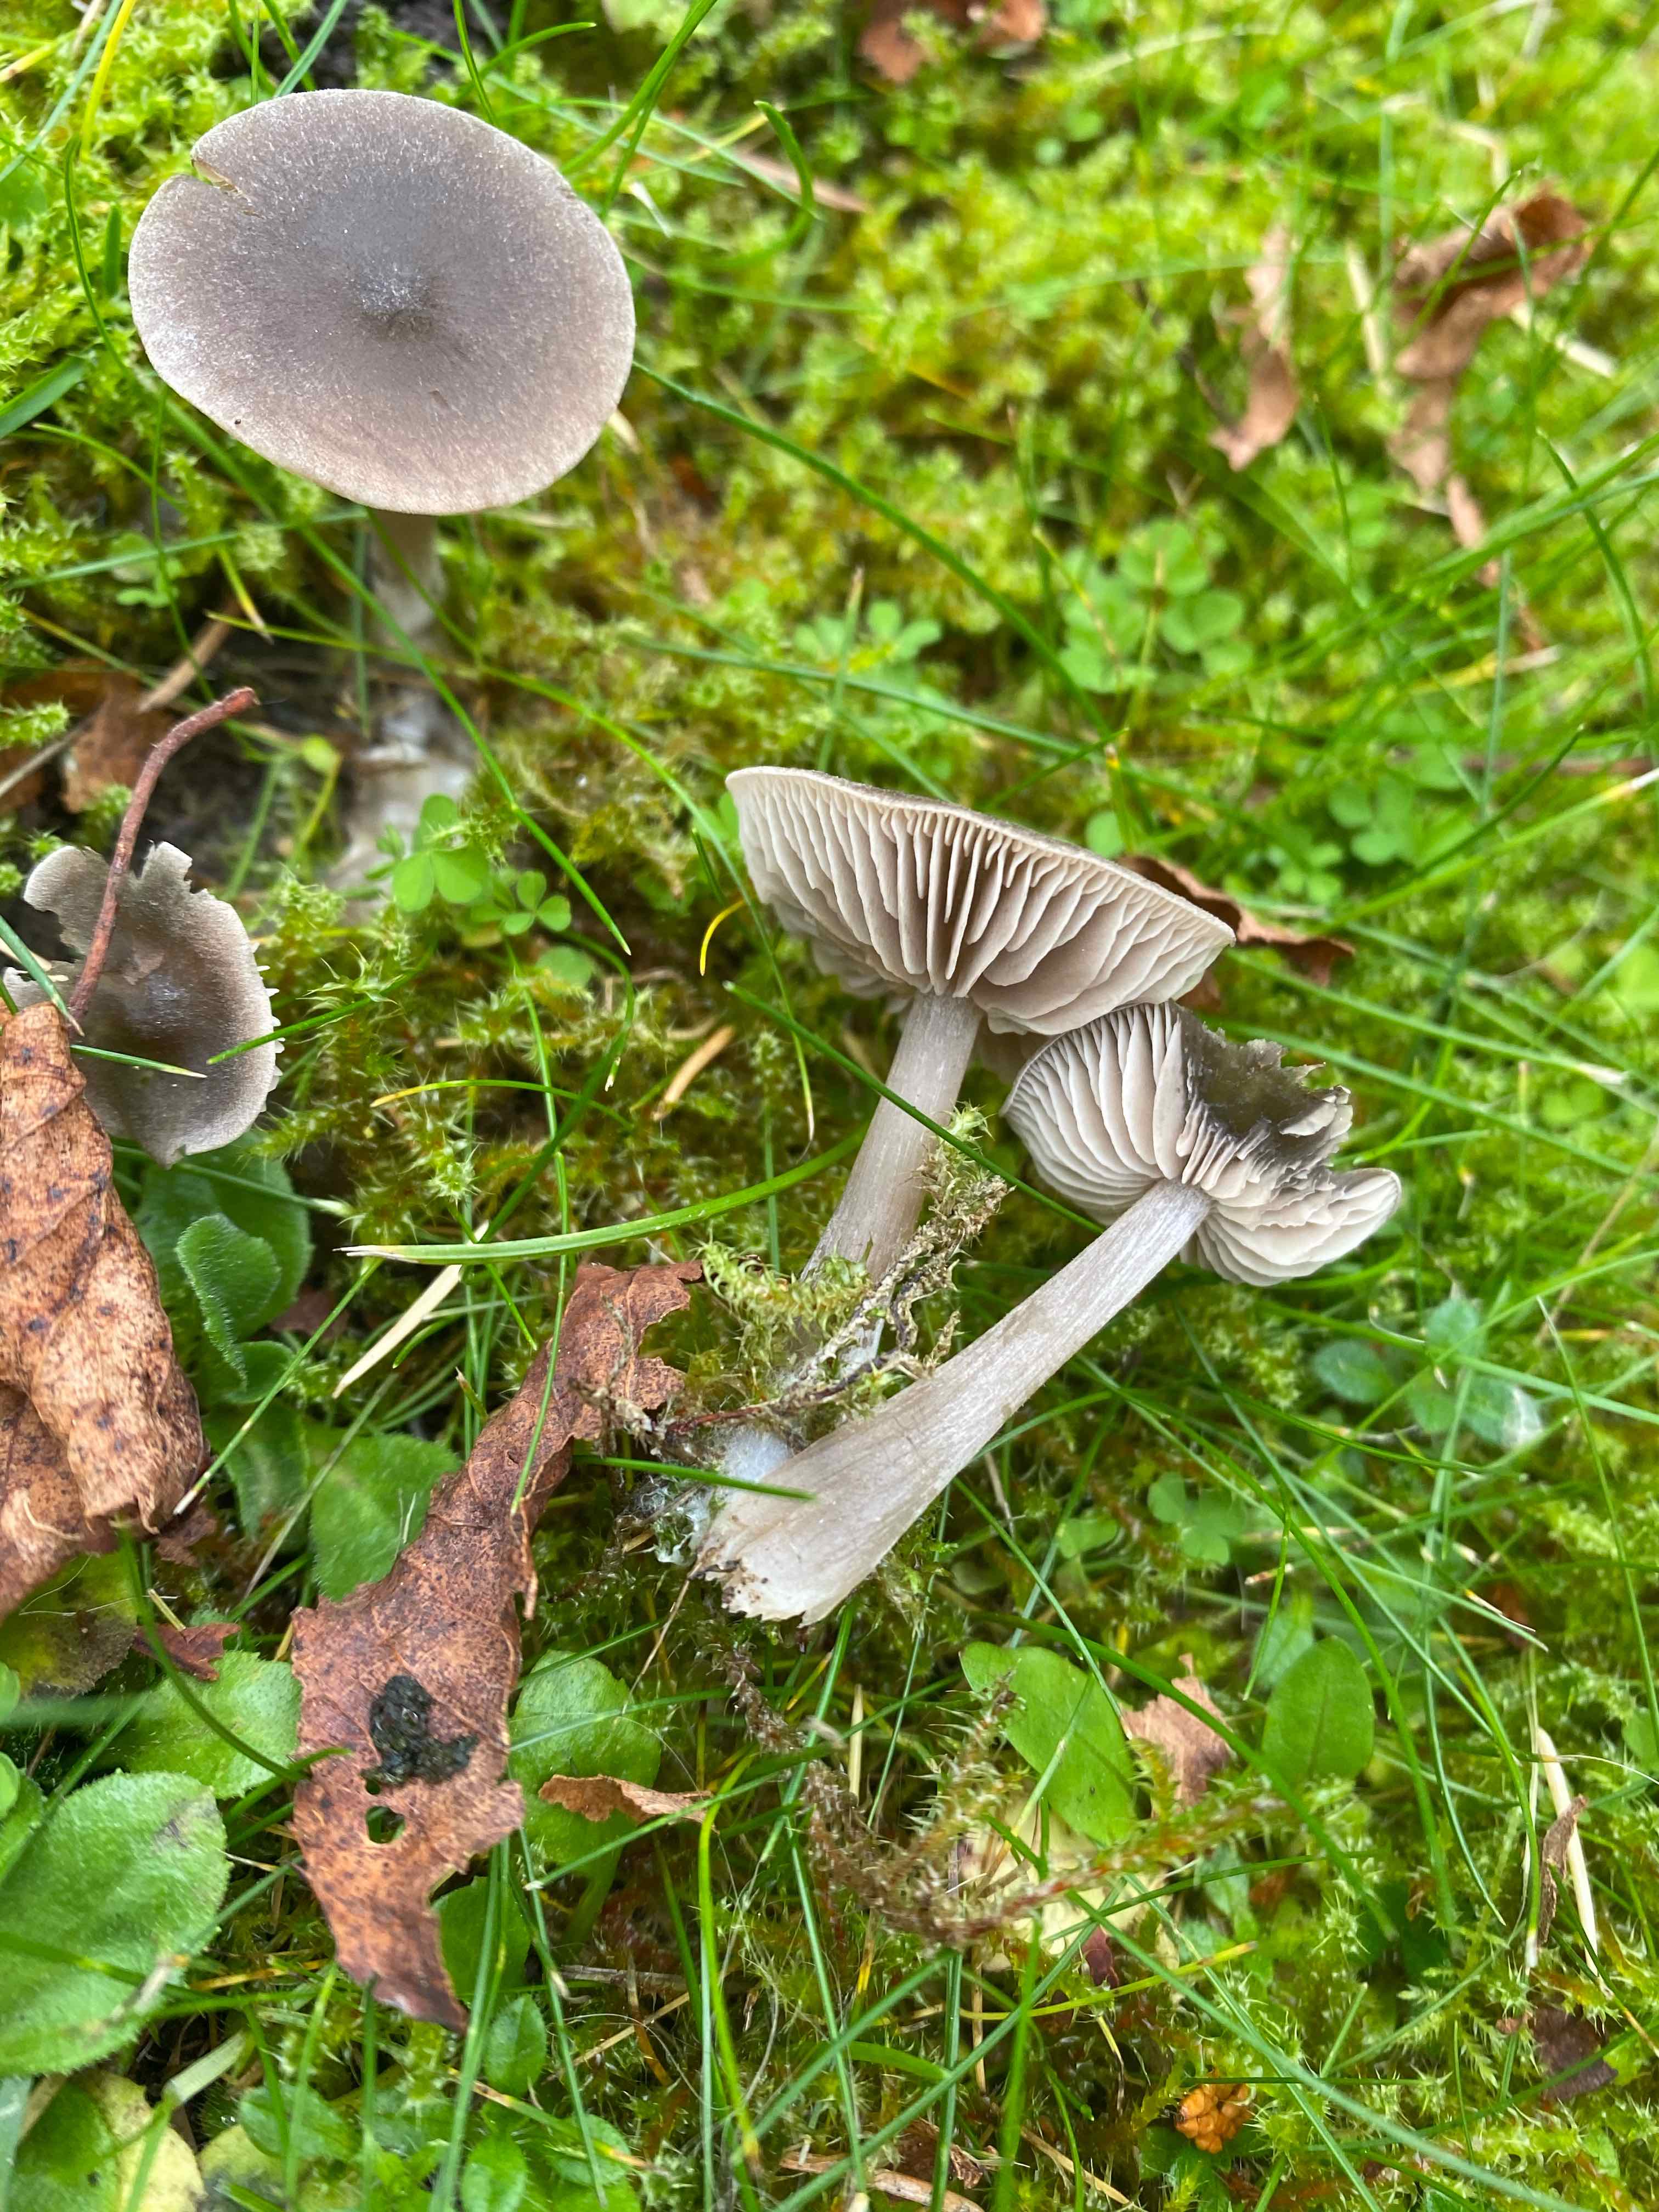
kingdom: Fungi
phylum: Basidiomycota
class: Agaricomycetes
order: Agaricales
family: Entolomataceae
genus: Entoloma
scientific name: Entoloma
